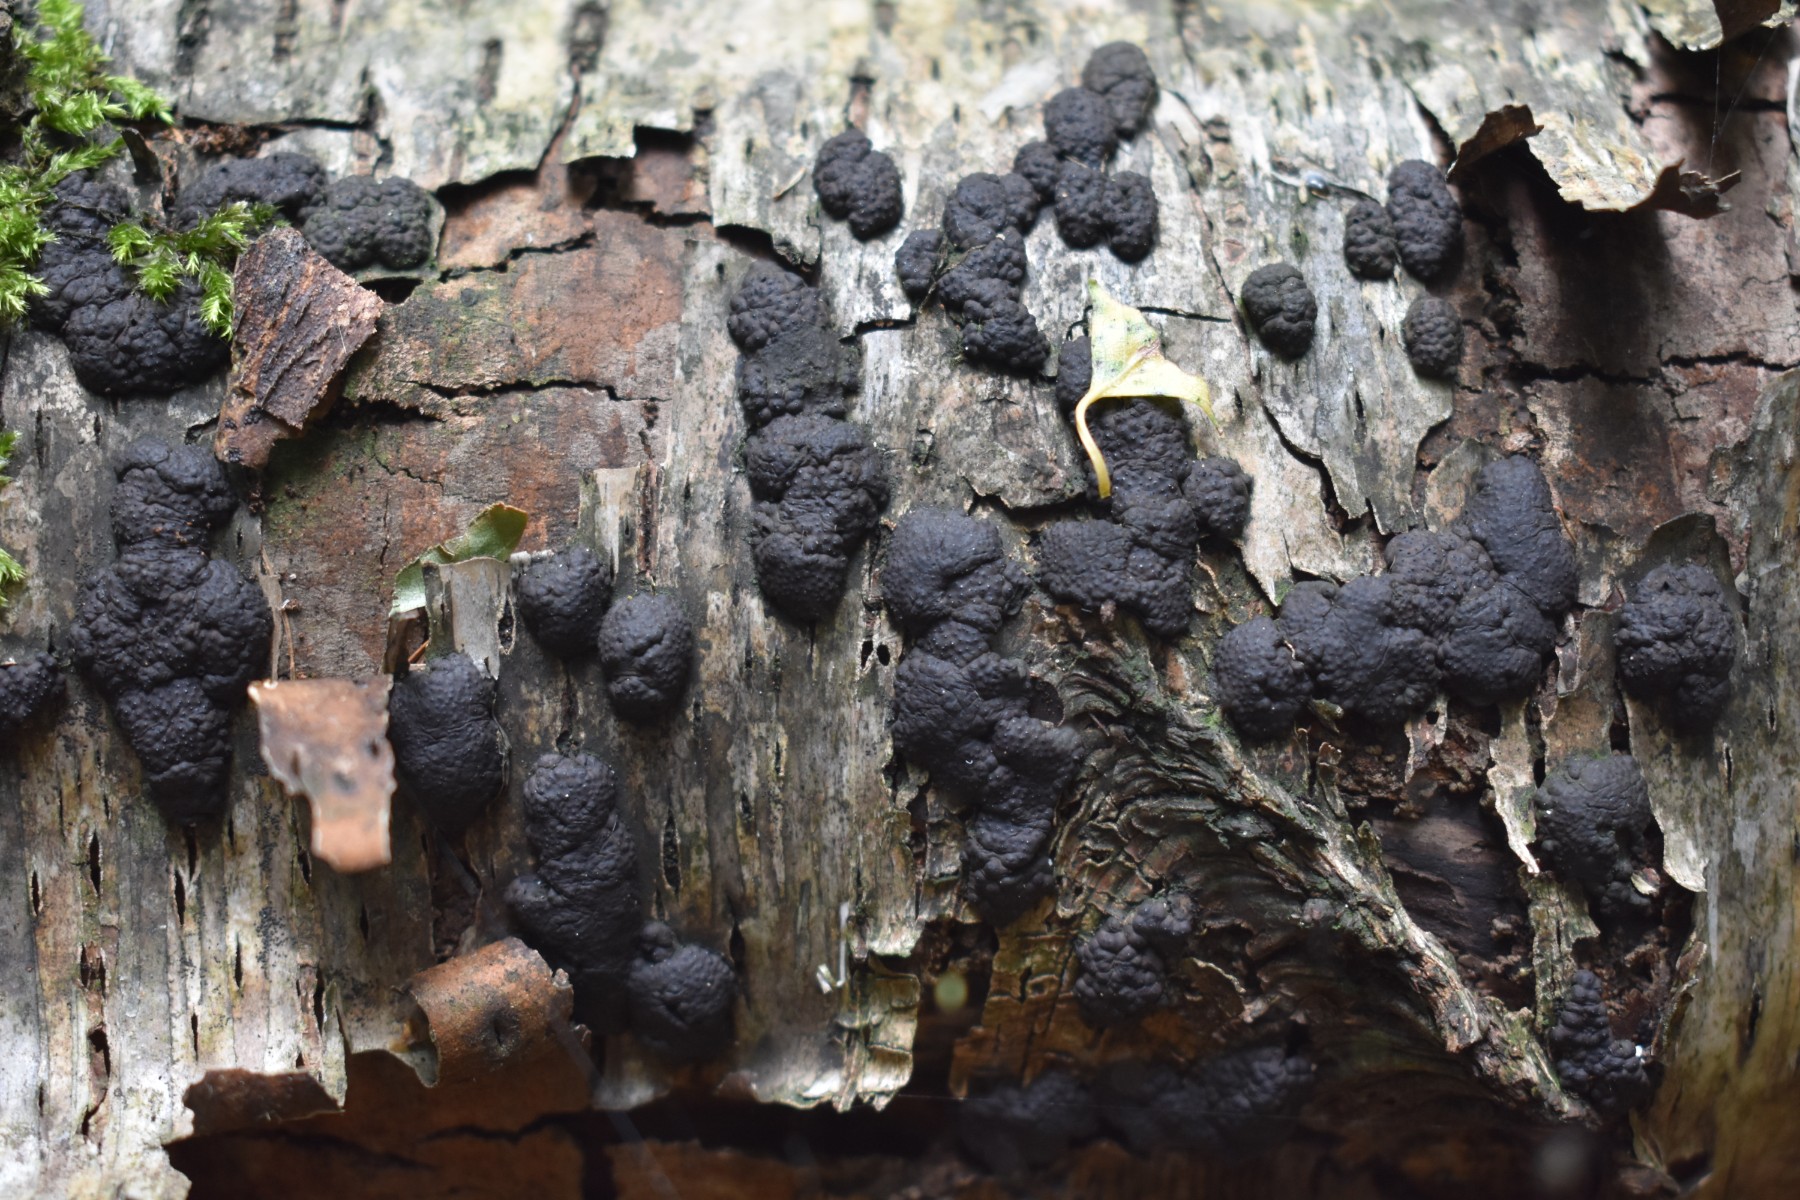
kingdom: Fungi
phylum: Ascomycota
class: Sordariomycetes
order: Xylariales
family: Hypoxylaceae
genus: Jackrogersella
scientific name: Jackrogersella multiformis
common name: foranderlig kulbær
